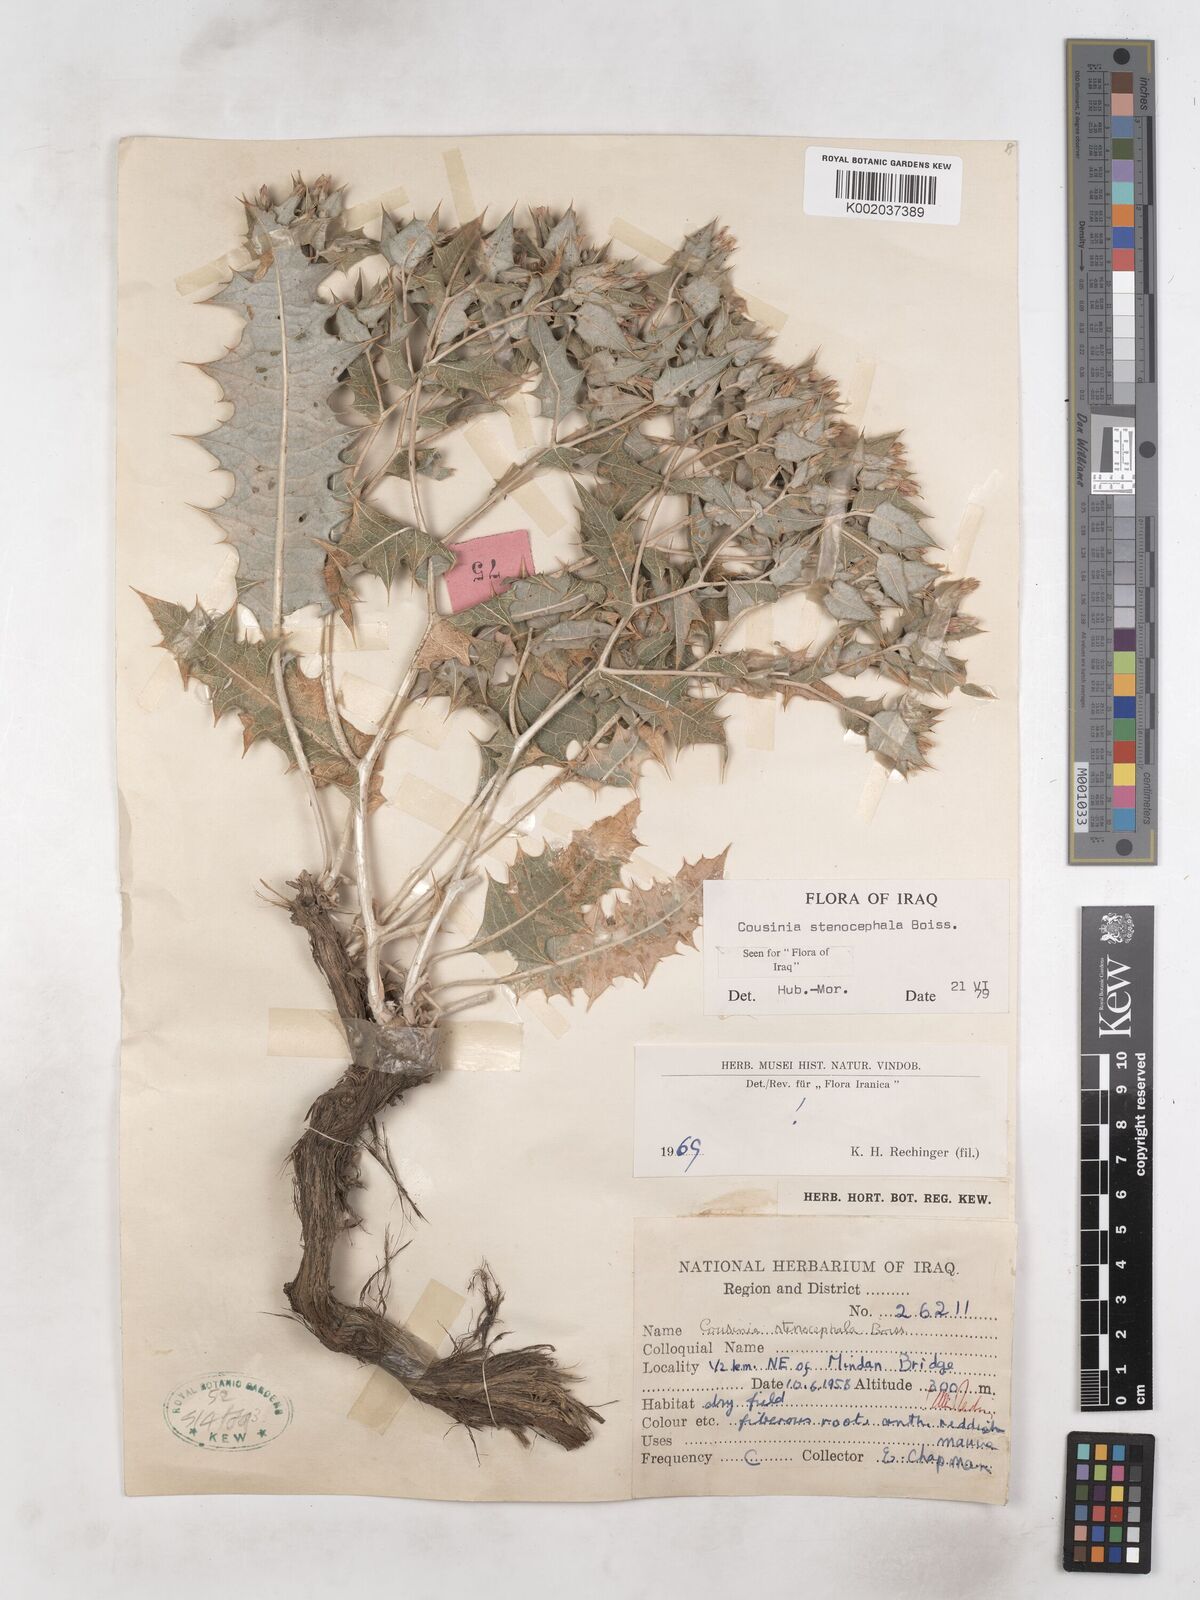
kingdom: Plantae
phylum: Tracheophyta
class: Magnoliopsida
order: Asterales
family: Asteraceae
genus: Cousinia
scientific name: Cousinia stenocephala
